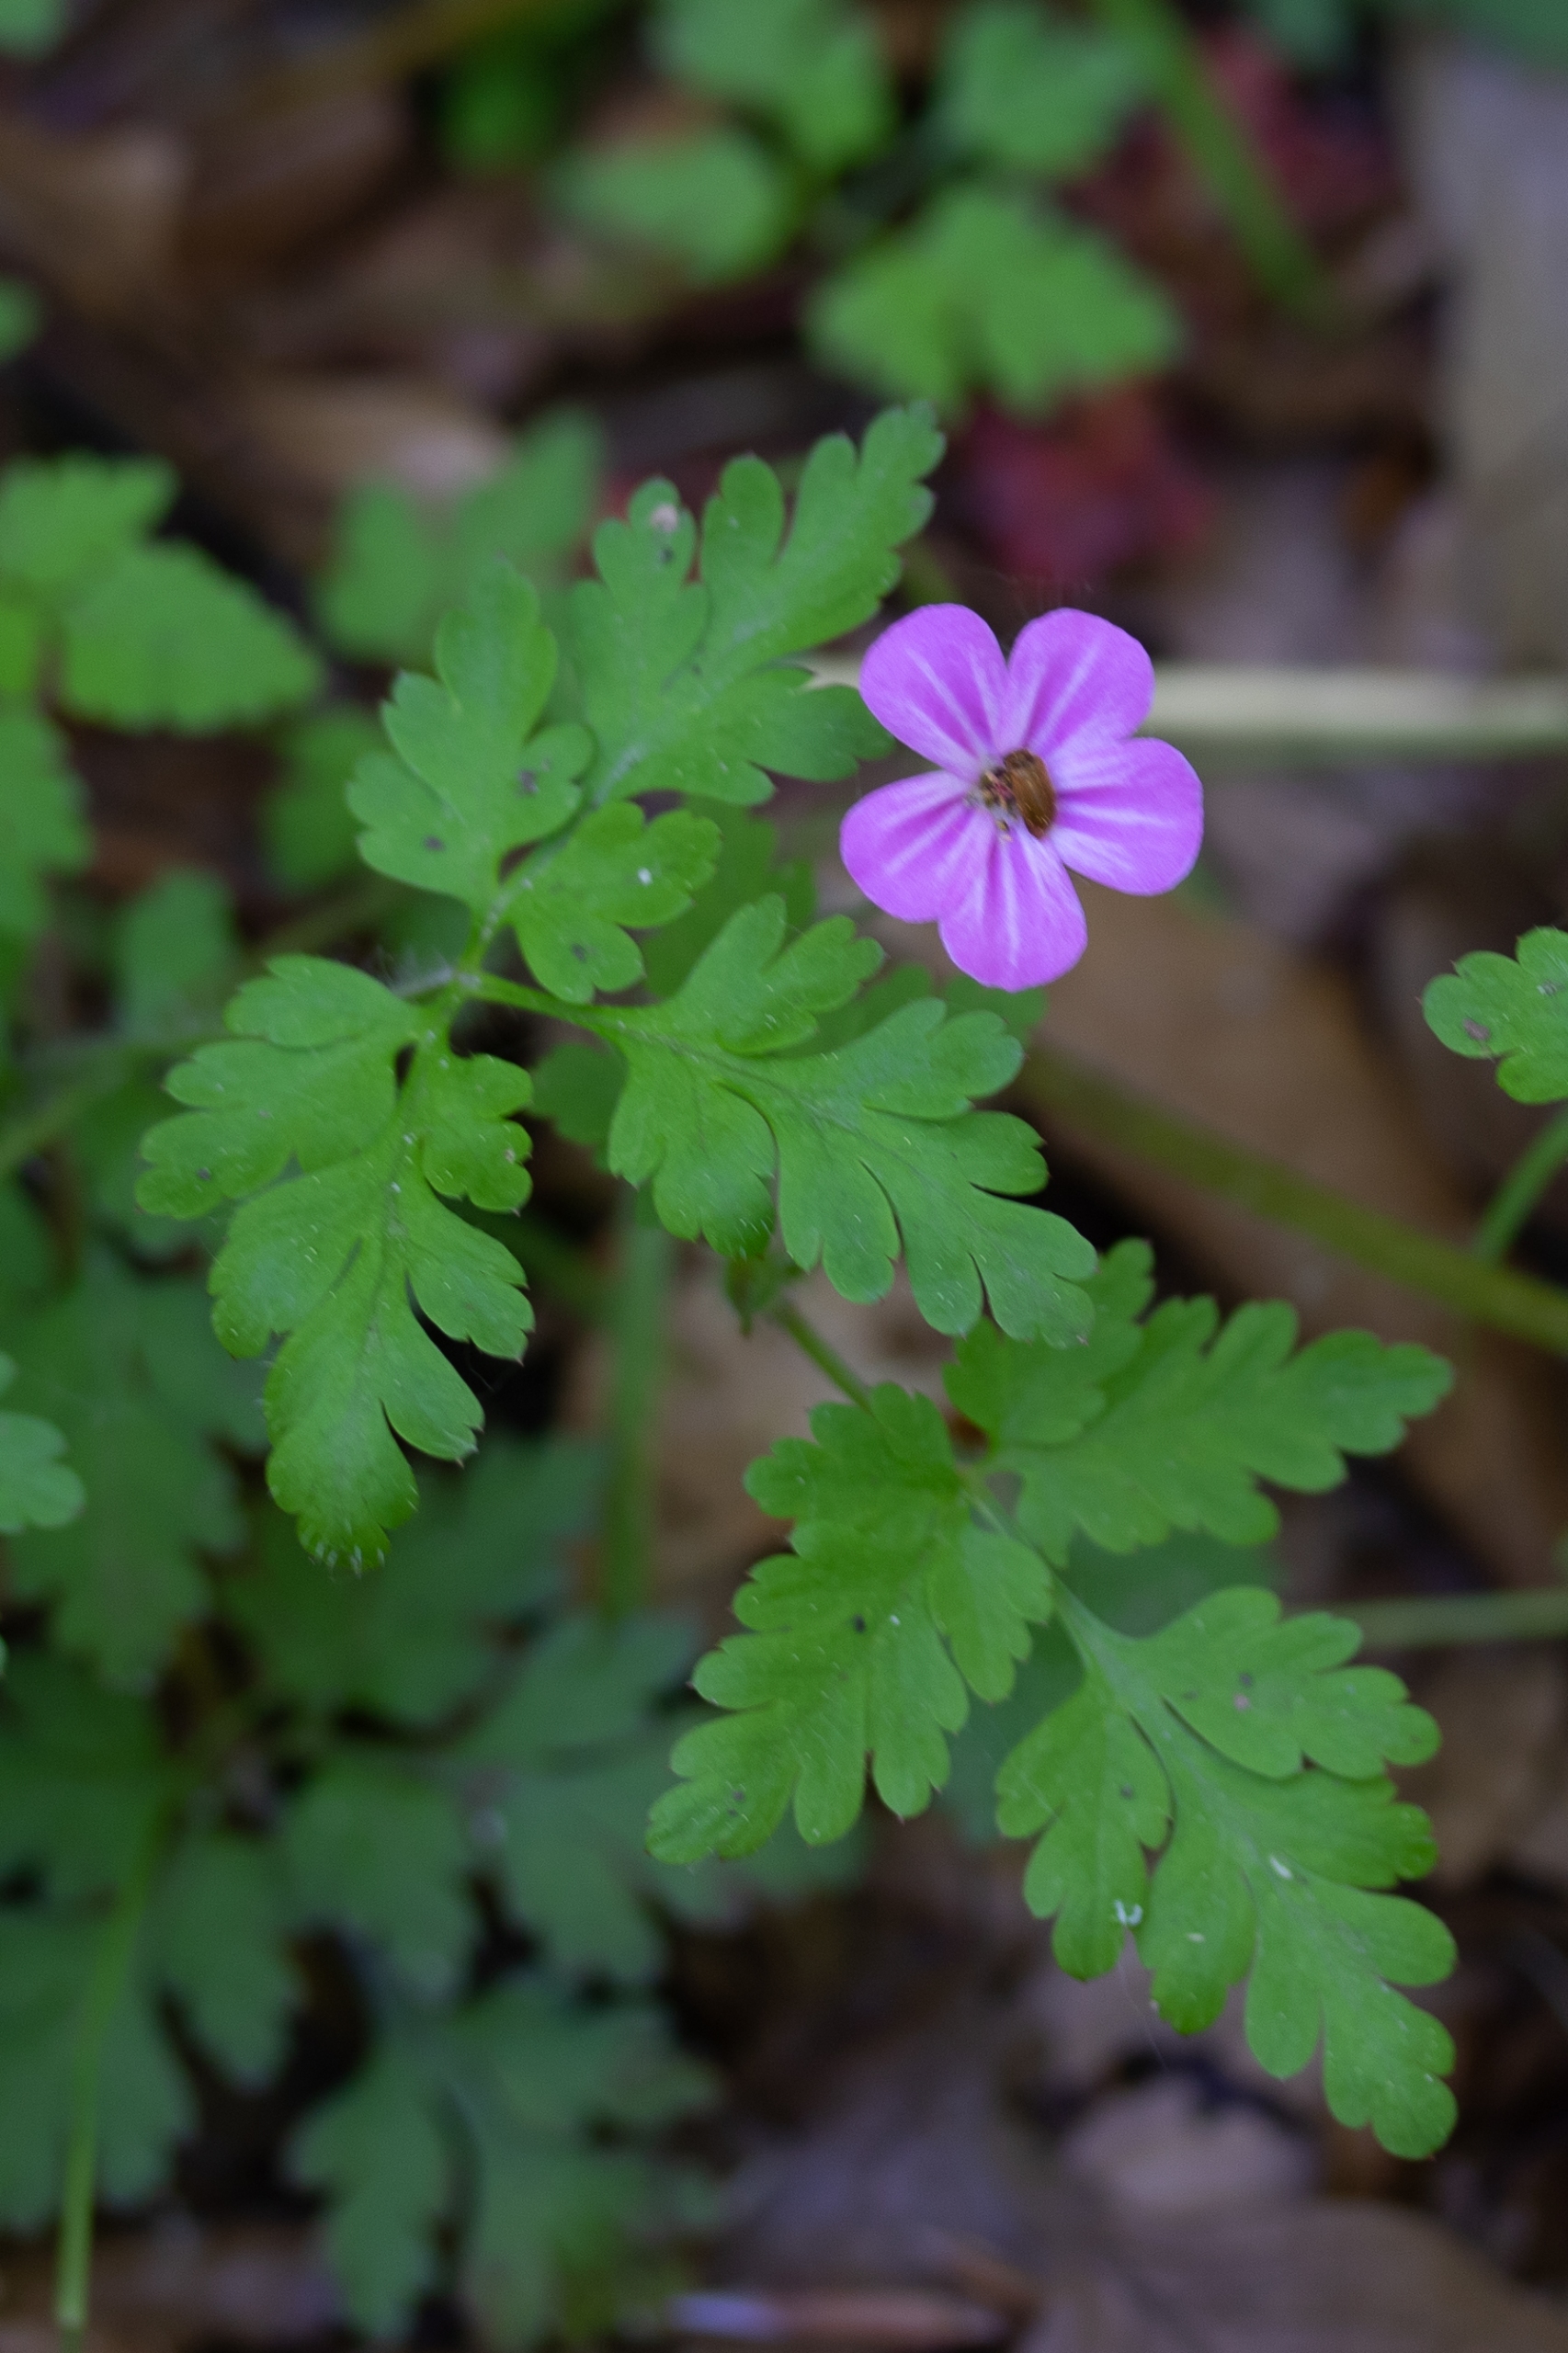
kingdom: Plantae
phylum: Tracheophyta
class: Magnoliopsida
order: Geraniales
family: Geraniaceae
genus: Geranium
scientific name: Geranium robertianum
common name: Stinkende storkenæb
